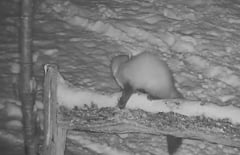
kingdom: Animalia
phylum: Chordata
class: Mammalia
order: Carnivora
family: Mustelidae
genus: Martes
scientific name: Martes foina
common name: Beech marten
